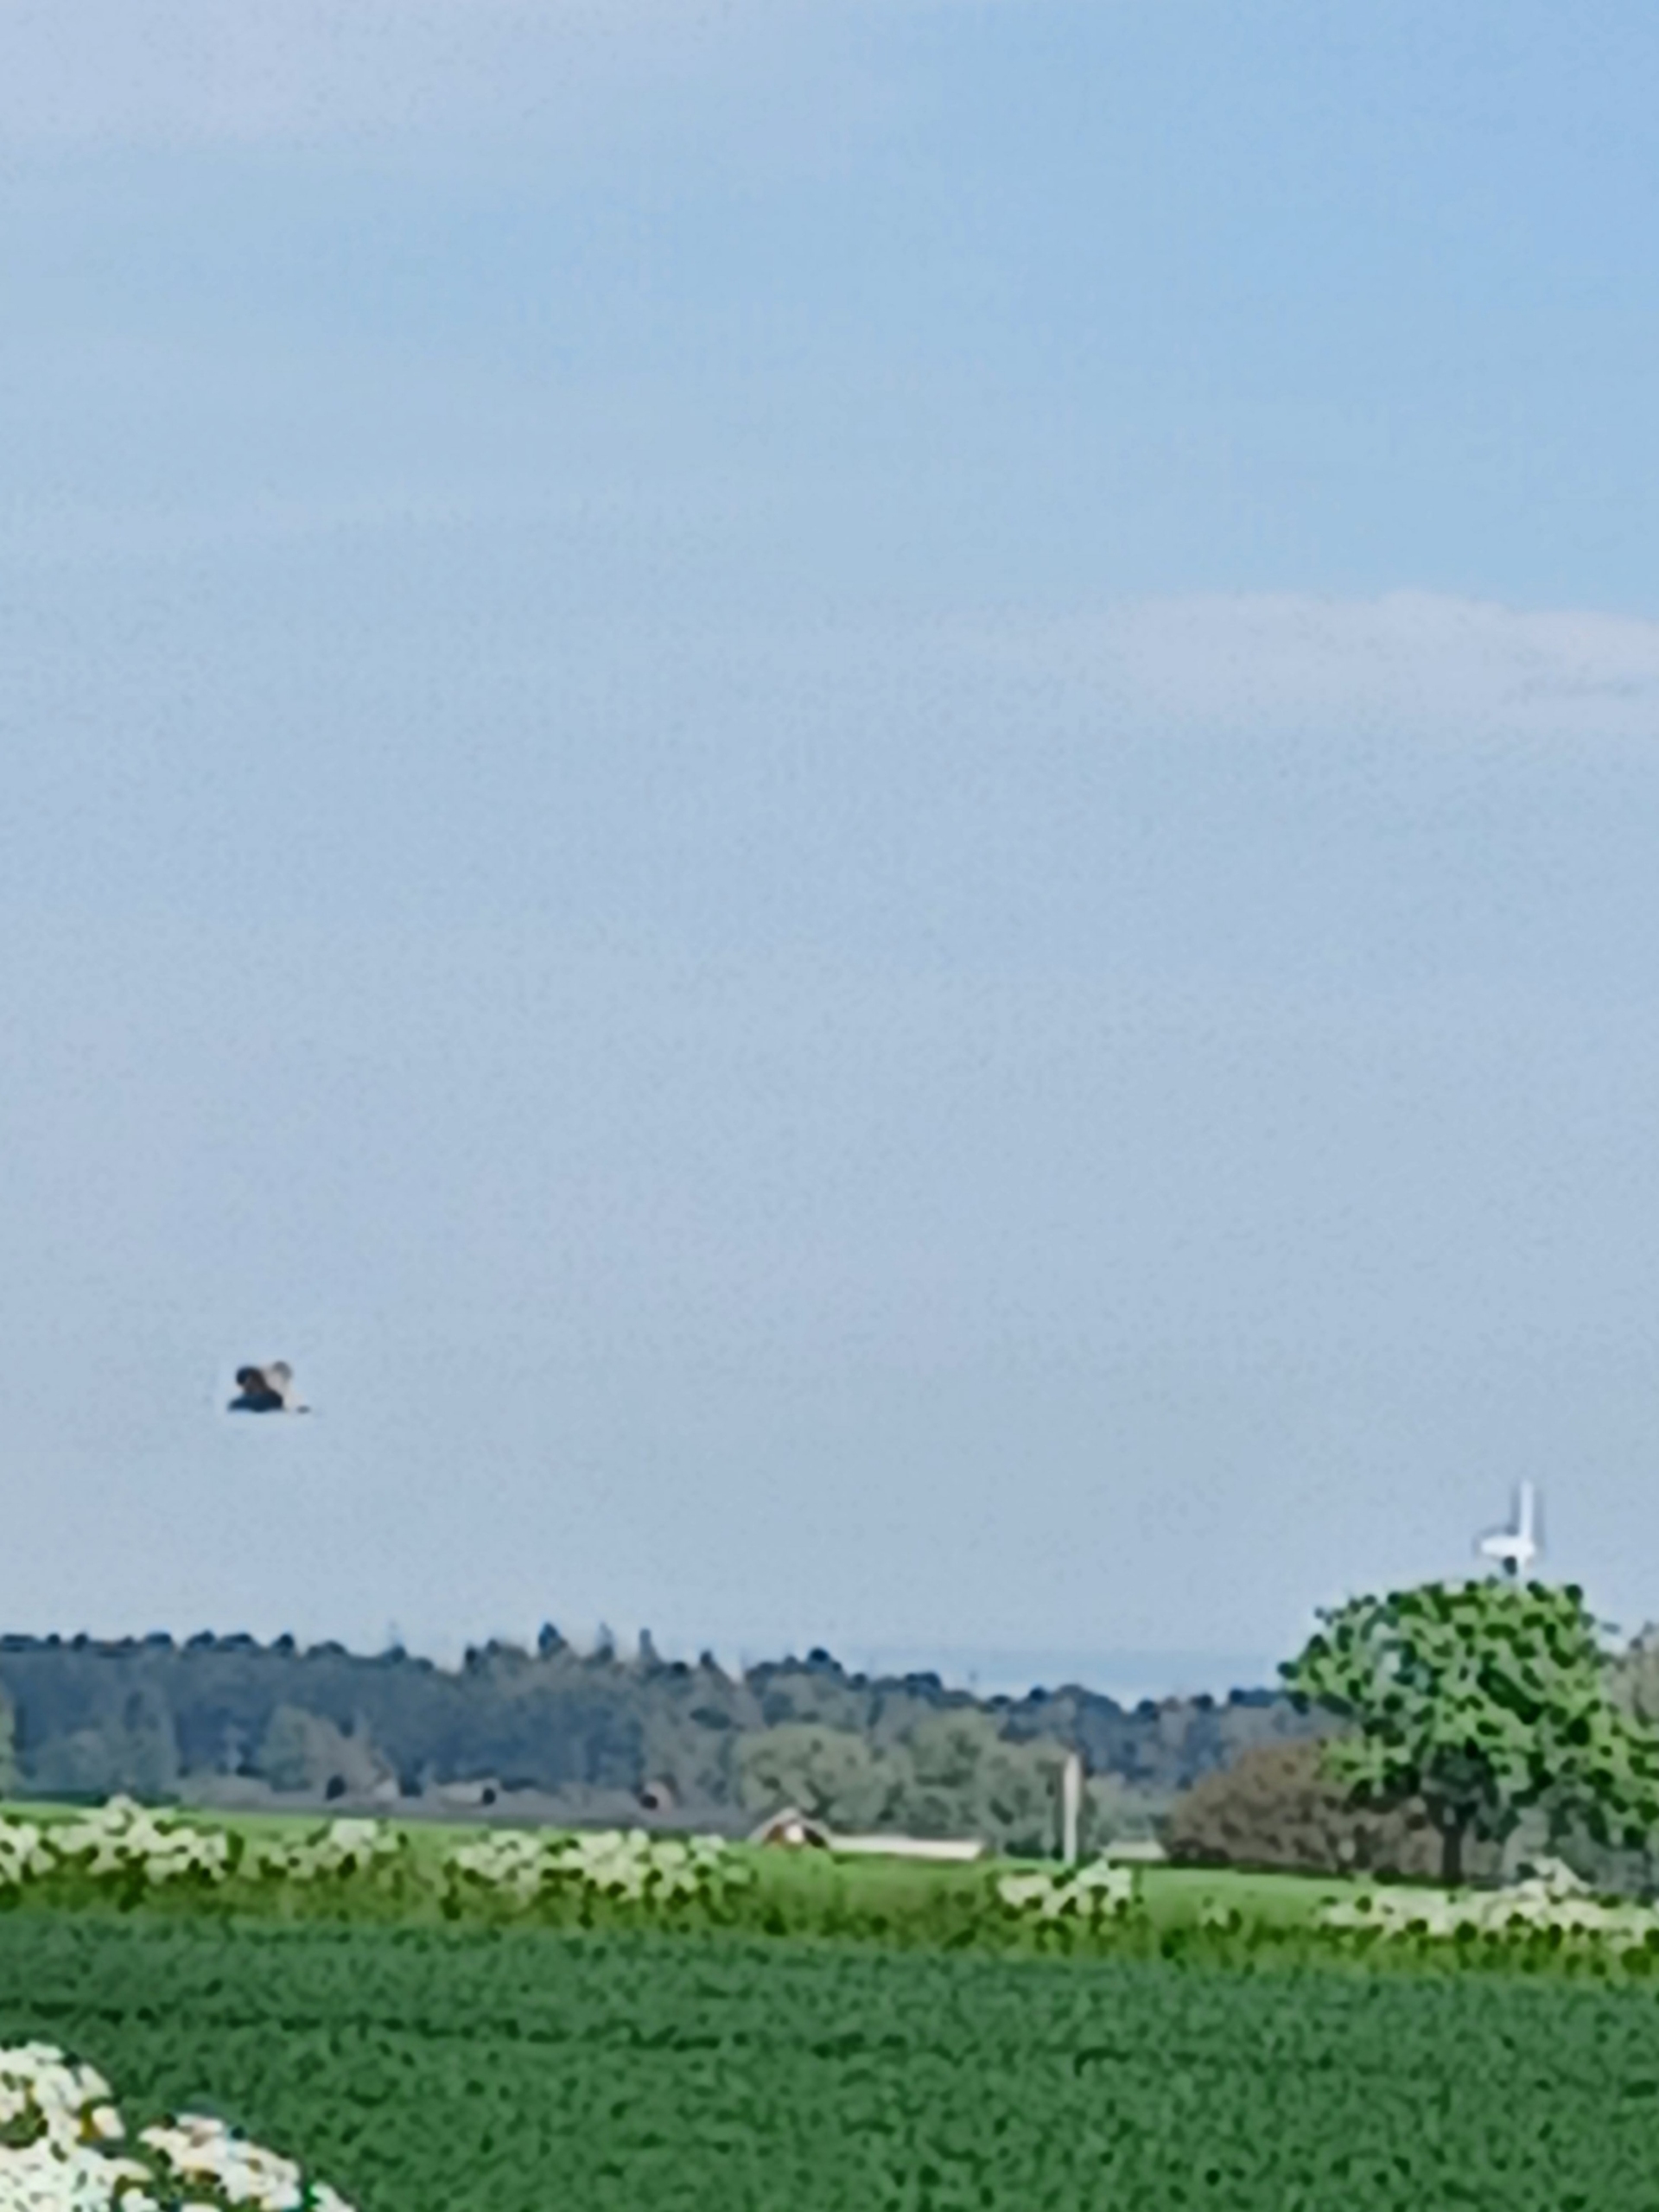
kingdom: Animalia
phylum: Chordata
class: Aves
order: Accipitriformes
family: Accipitridae
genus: Circus
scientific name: Circus aeruginosus
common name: Rørhøg
